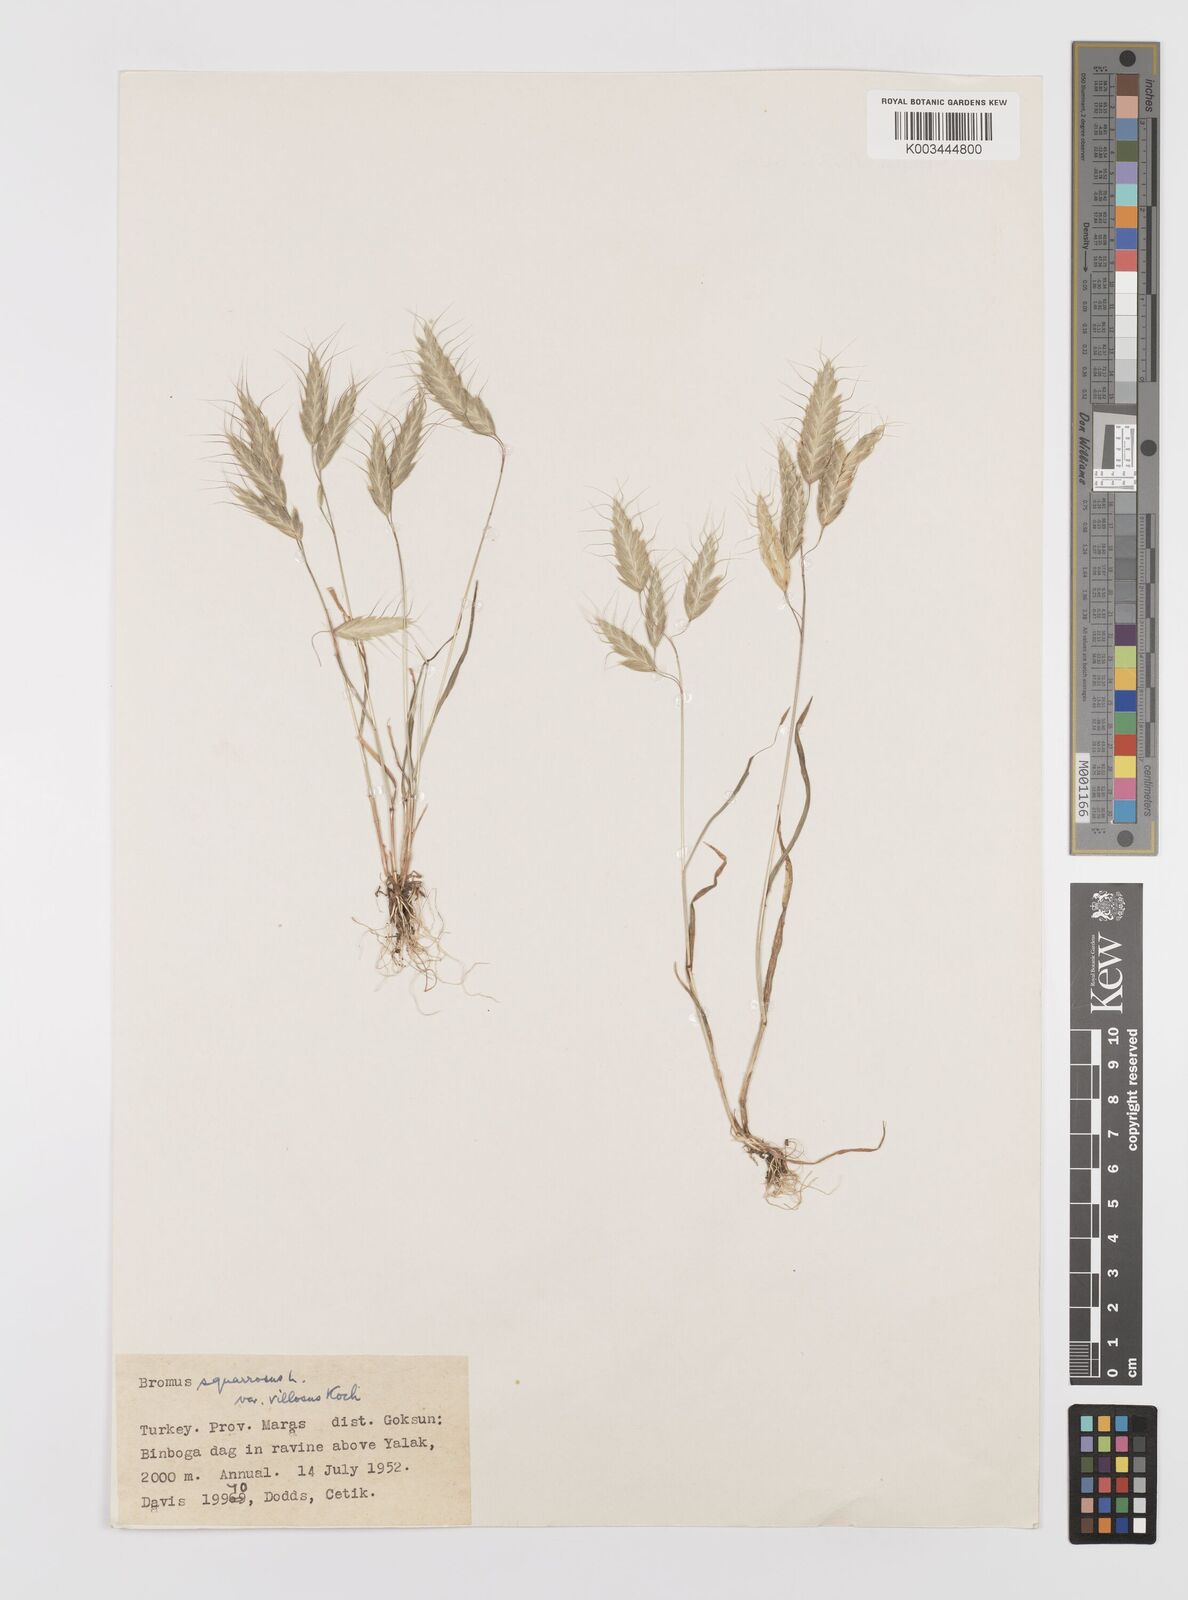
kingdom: Plantae
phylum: Tracheophyta
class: Liliopsida
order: Poales
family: Poaceae
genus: Bromus
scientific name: Bromus squarrosus
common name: Corn brome
